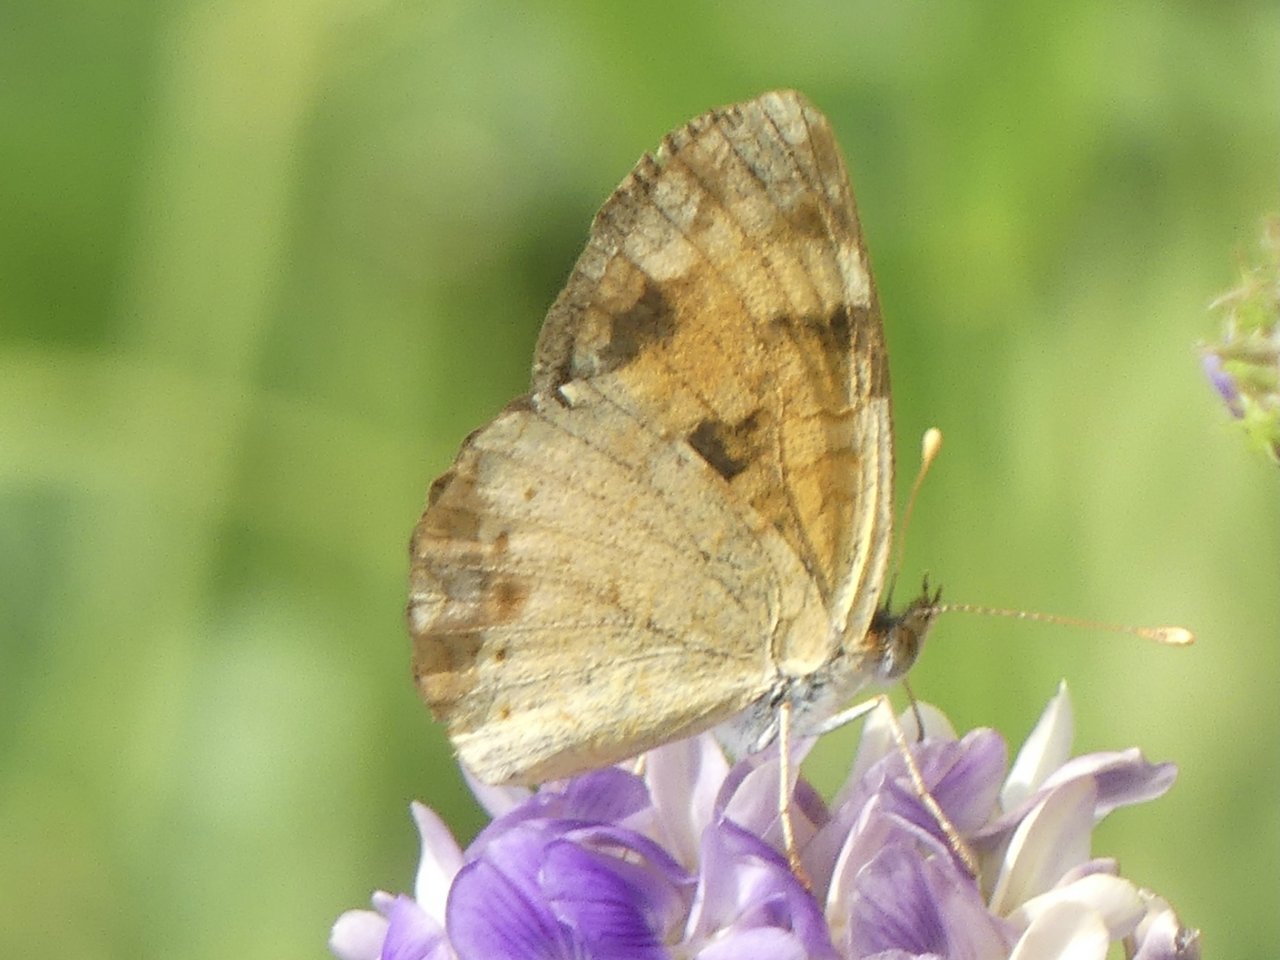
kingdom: Animalia
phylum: Arthropoda
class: Insecta
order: Lepidoptera
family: Nymphalidae
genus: Phyciodes
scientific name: Phyciodes
